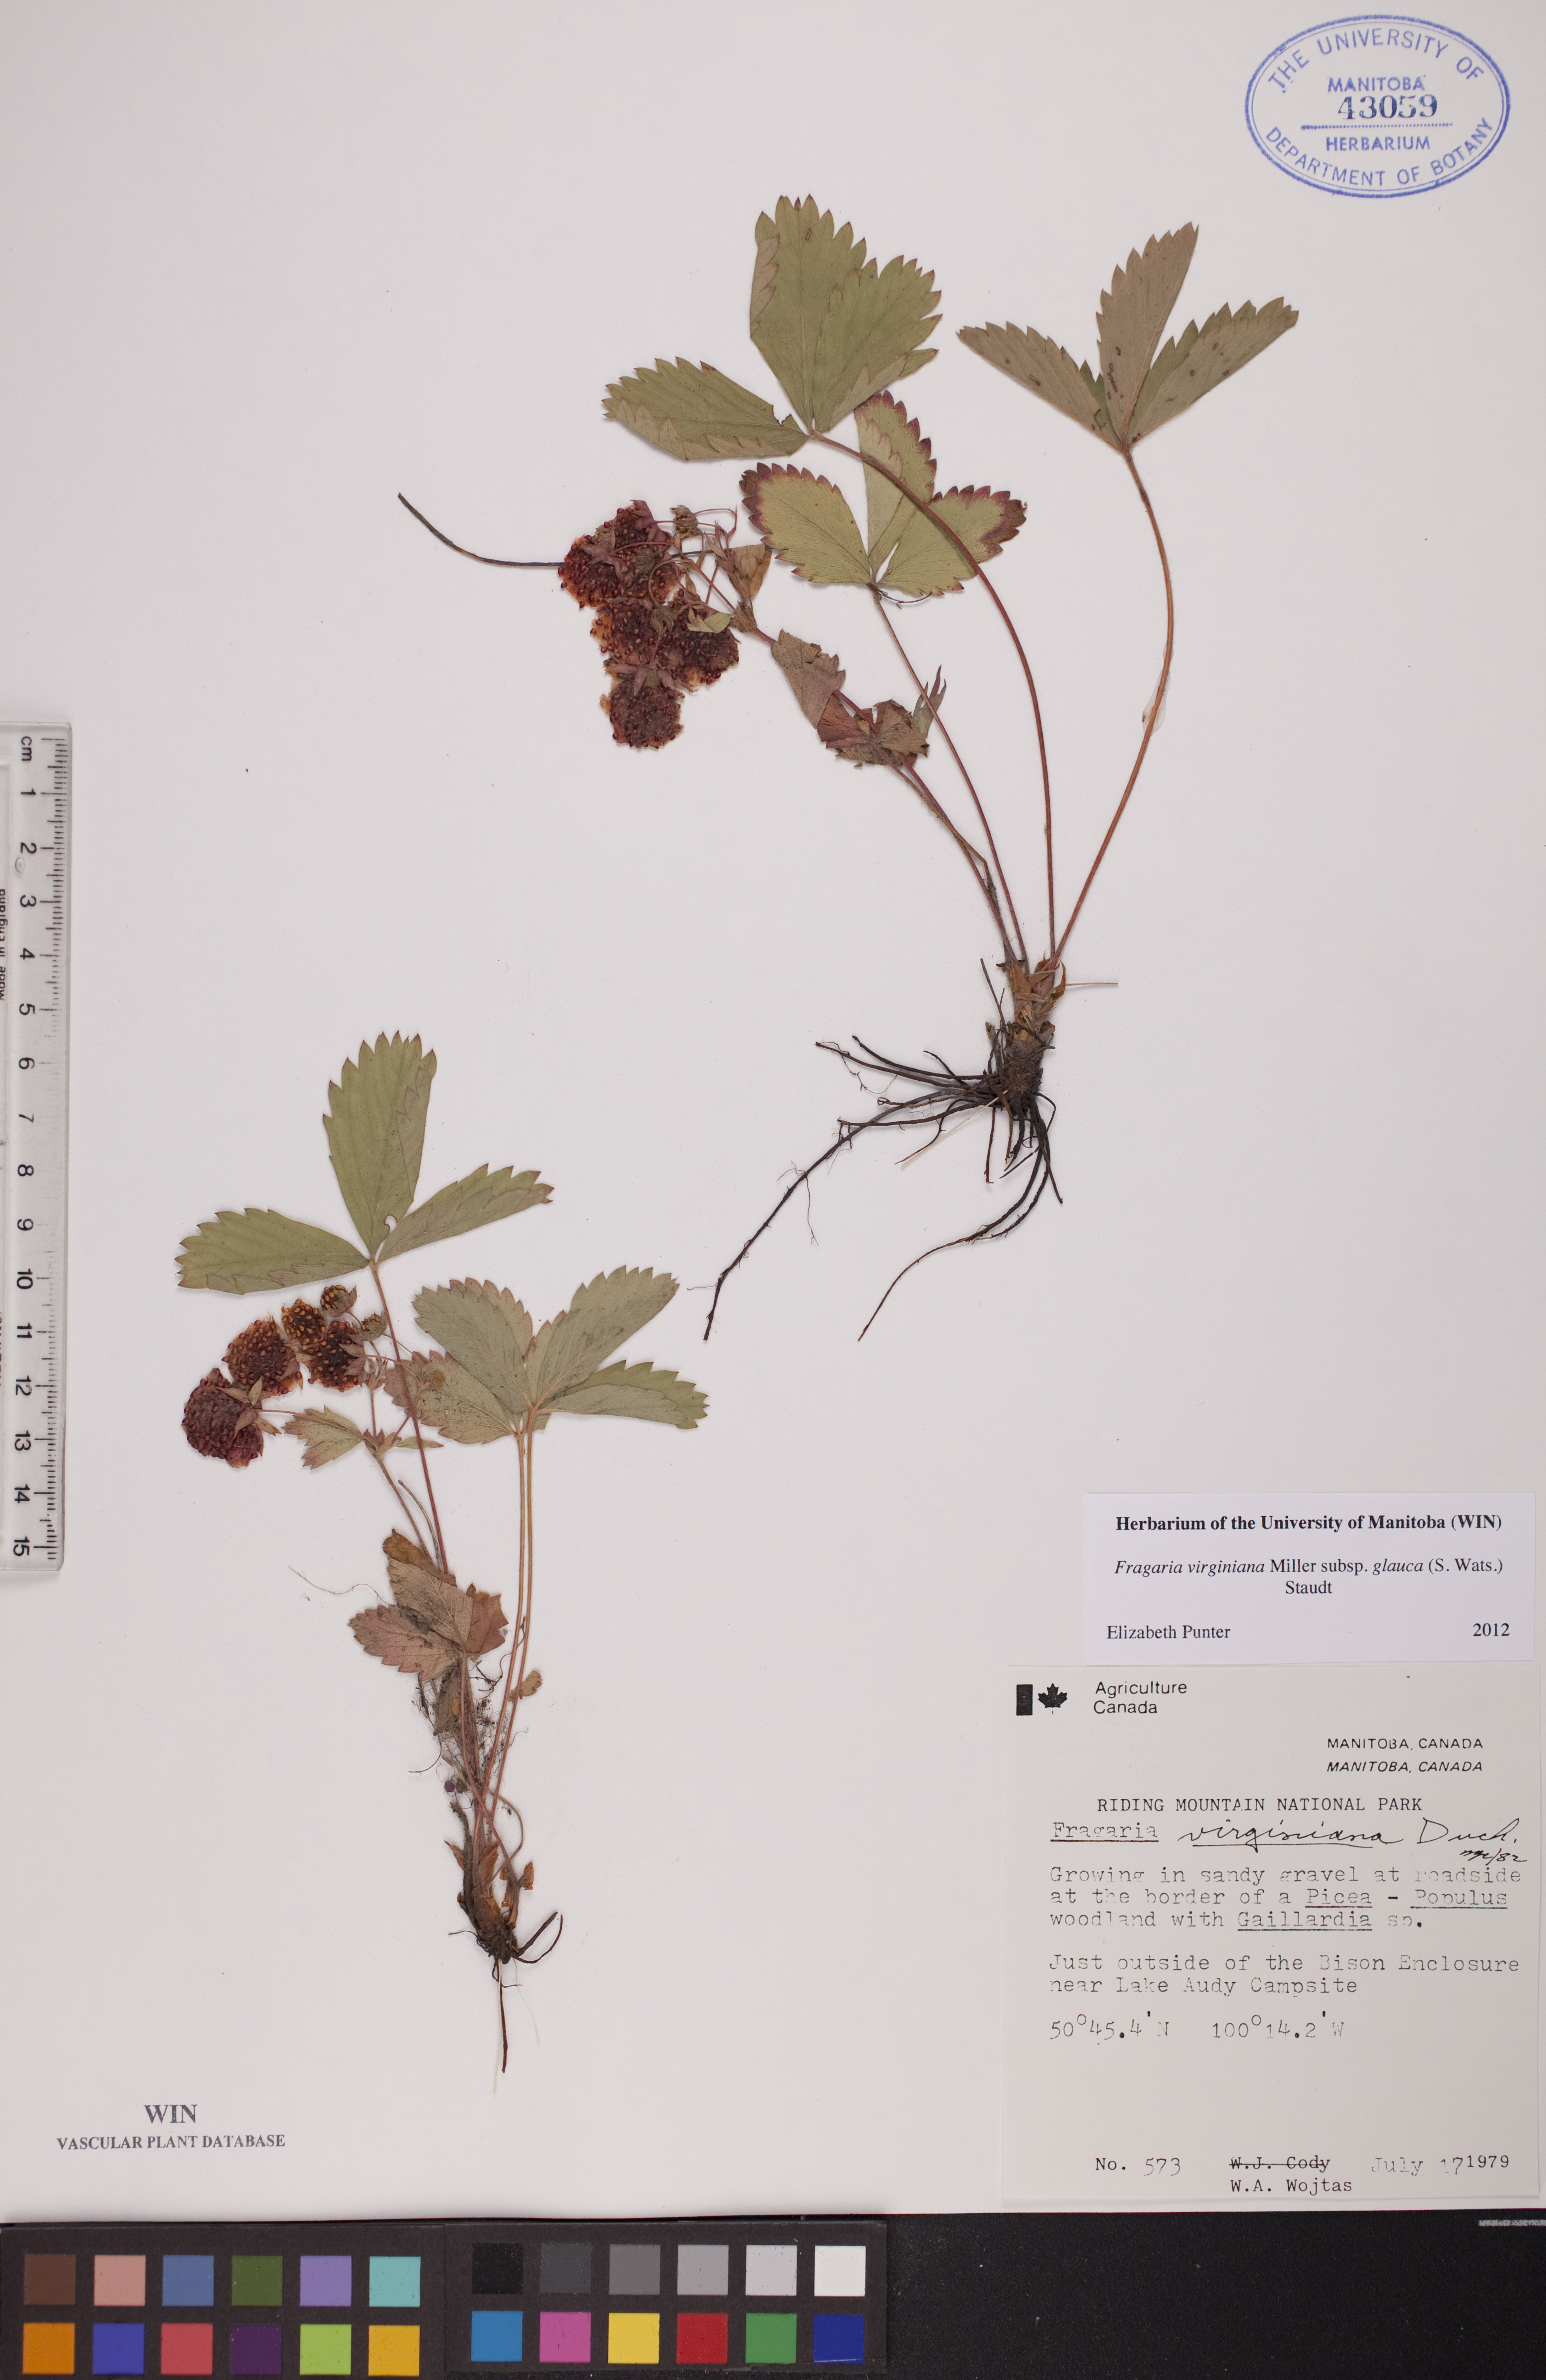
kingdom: Plantae
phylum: Tracheophyta
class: Magnoliopsida
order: Rosales
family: Rosaceae
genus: Fragaria
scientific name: Fragaria virginiana
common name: Thickleaved wild strawberry
